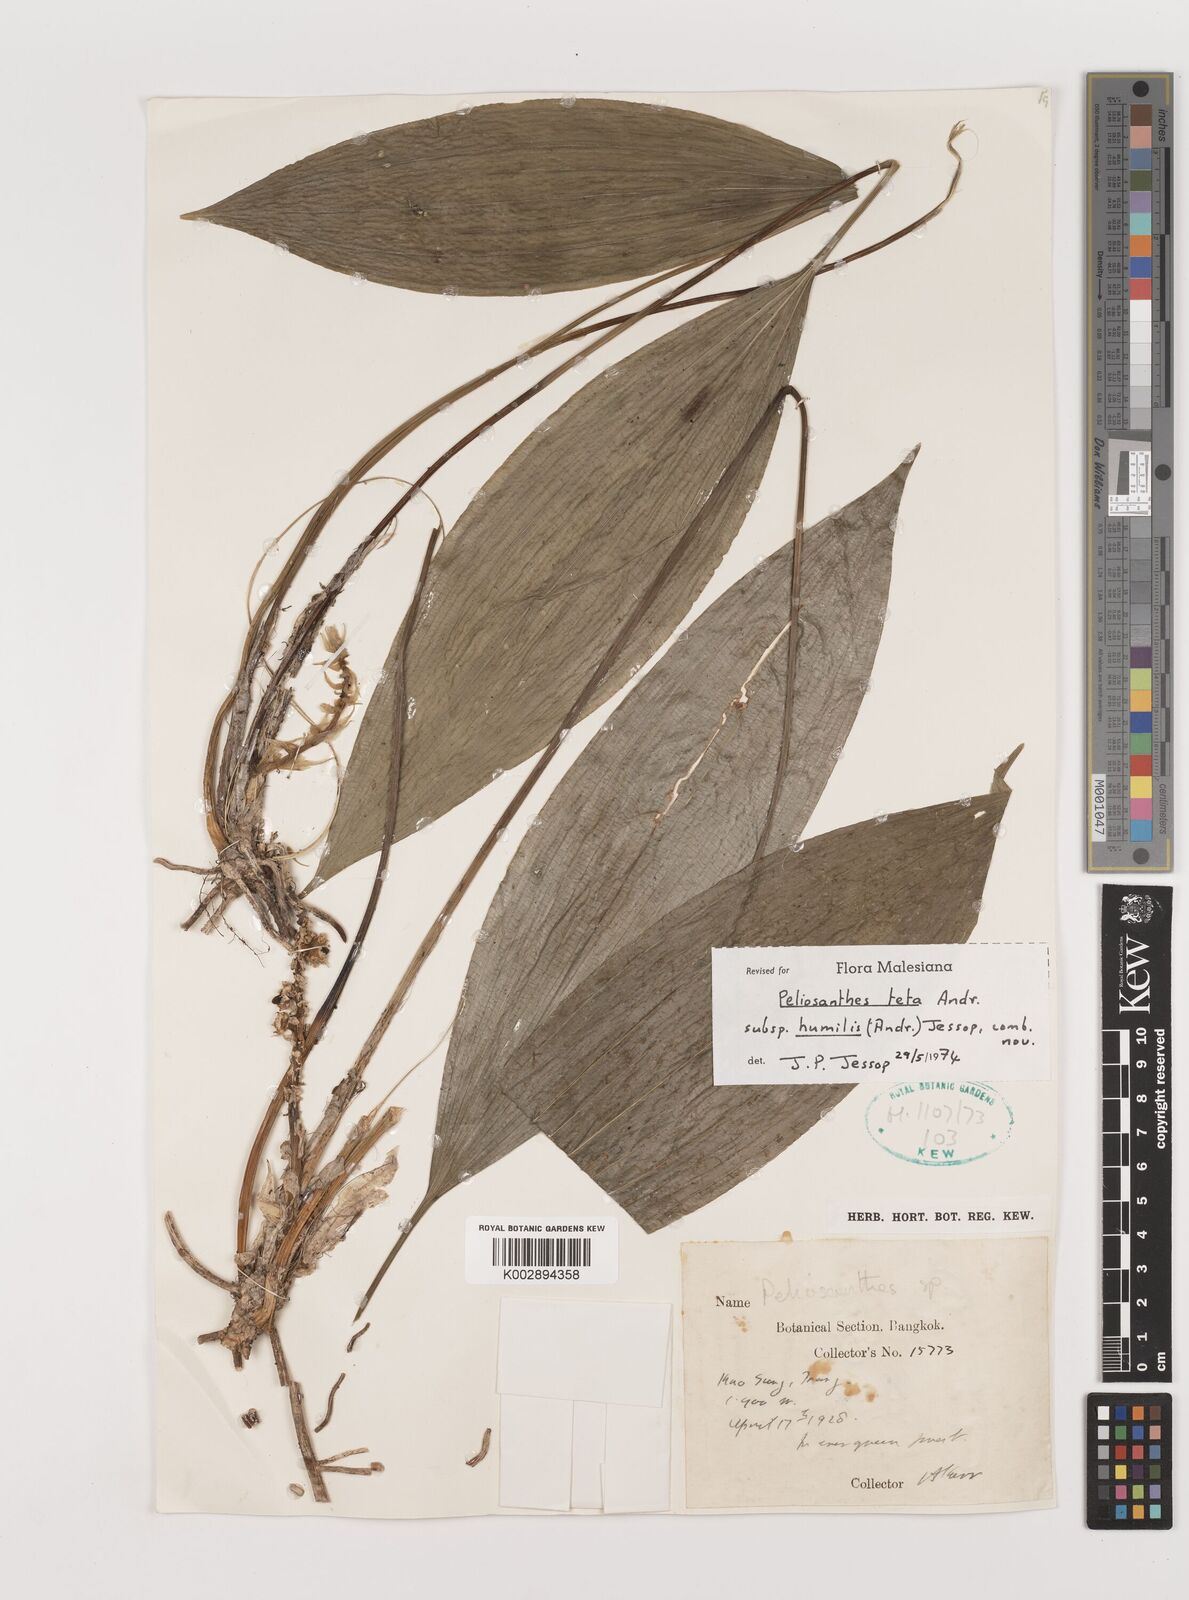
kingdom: Plantae
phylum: Tracheophyta
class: Liliopsida
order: Asparagales
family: Asparagaceae
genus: Peliosanthes
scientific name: Peliosanthes teta
